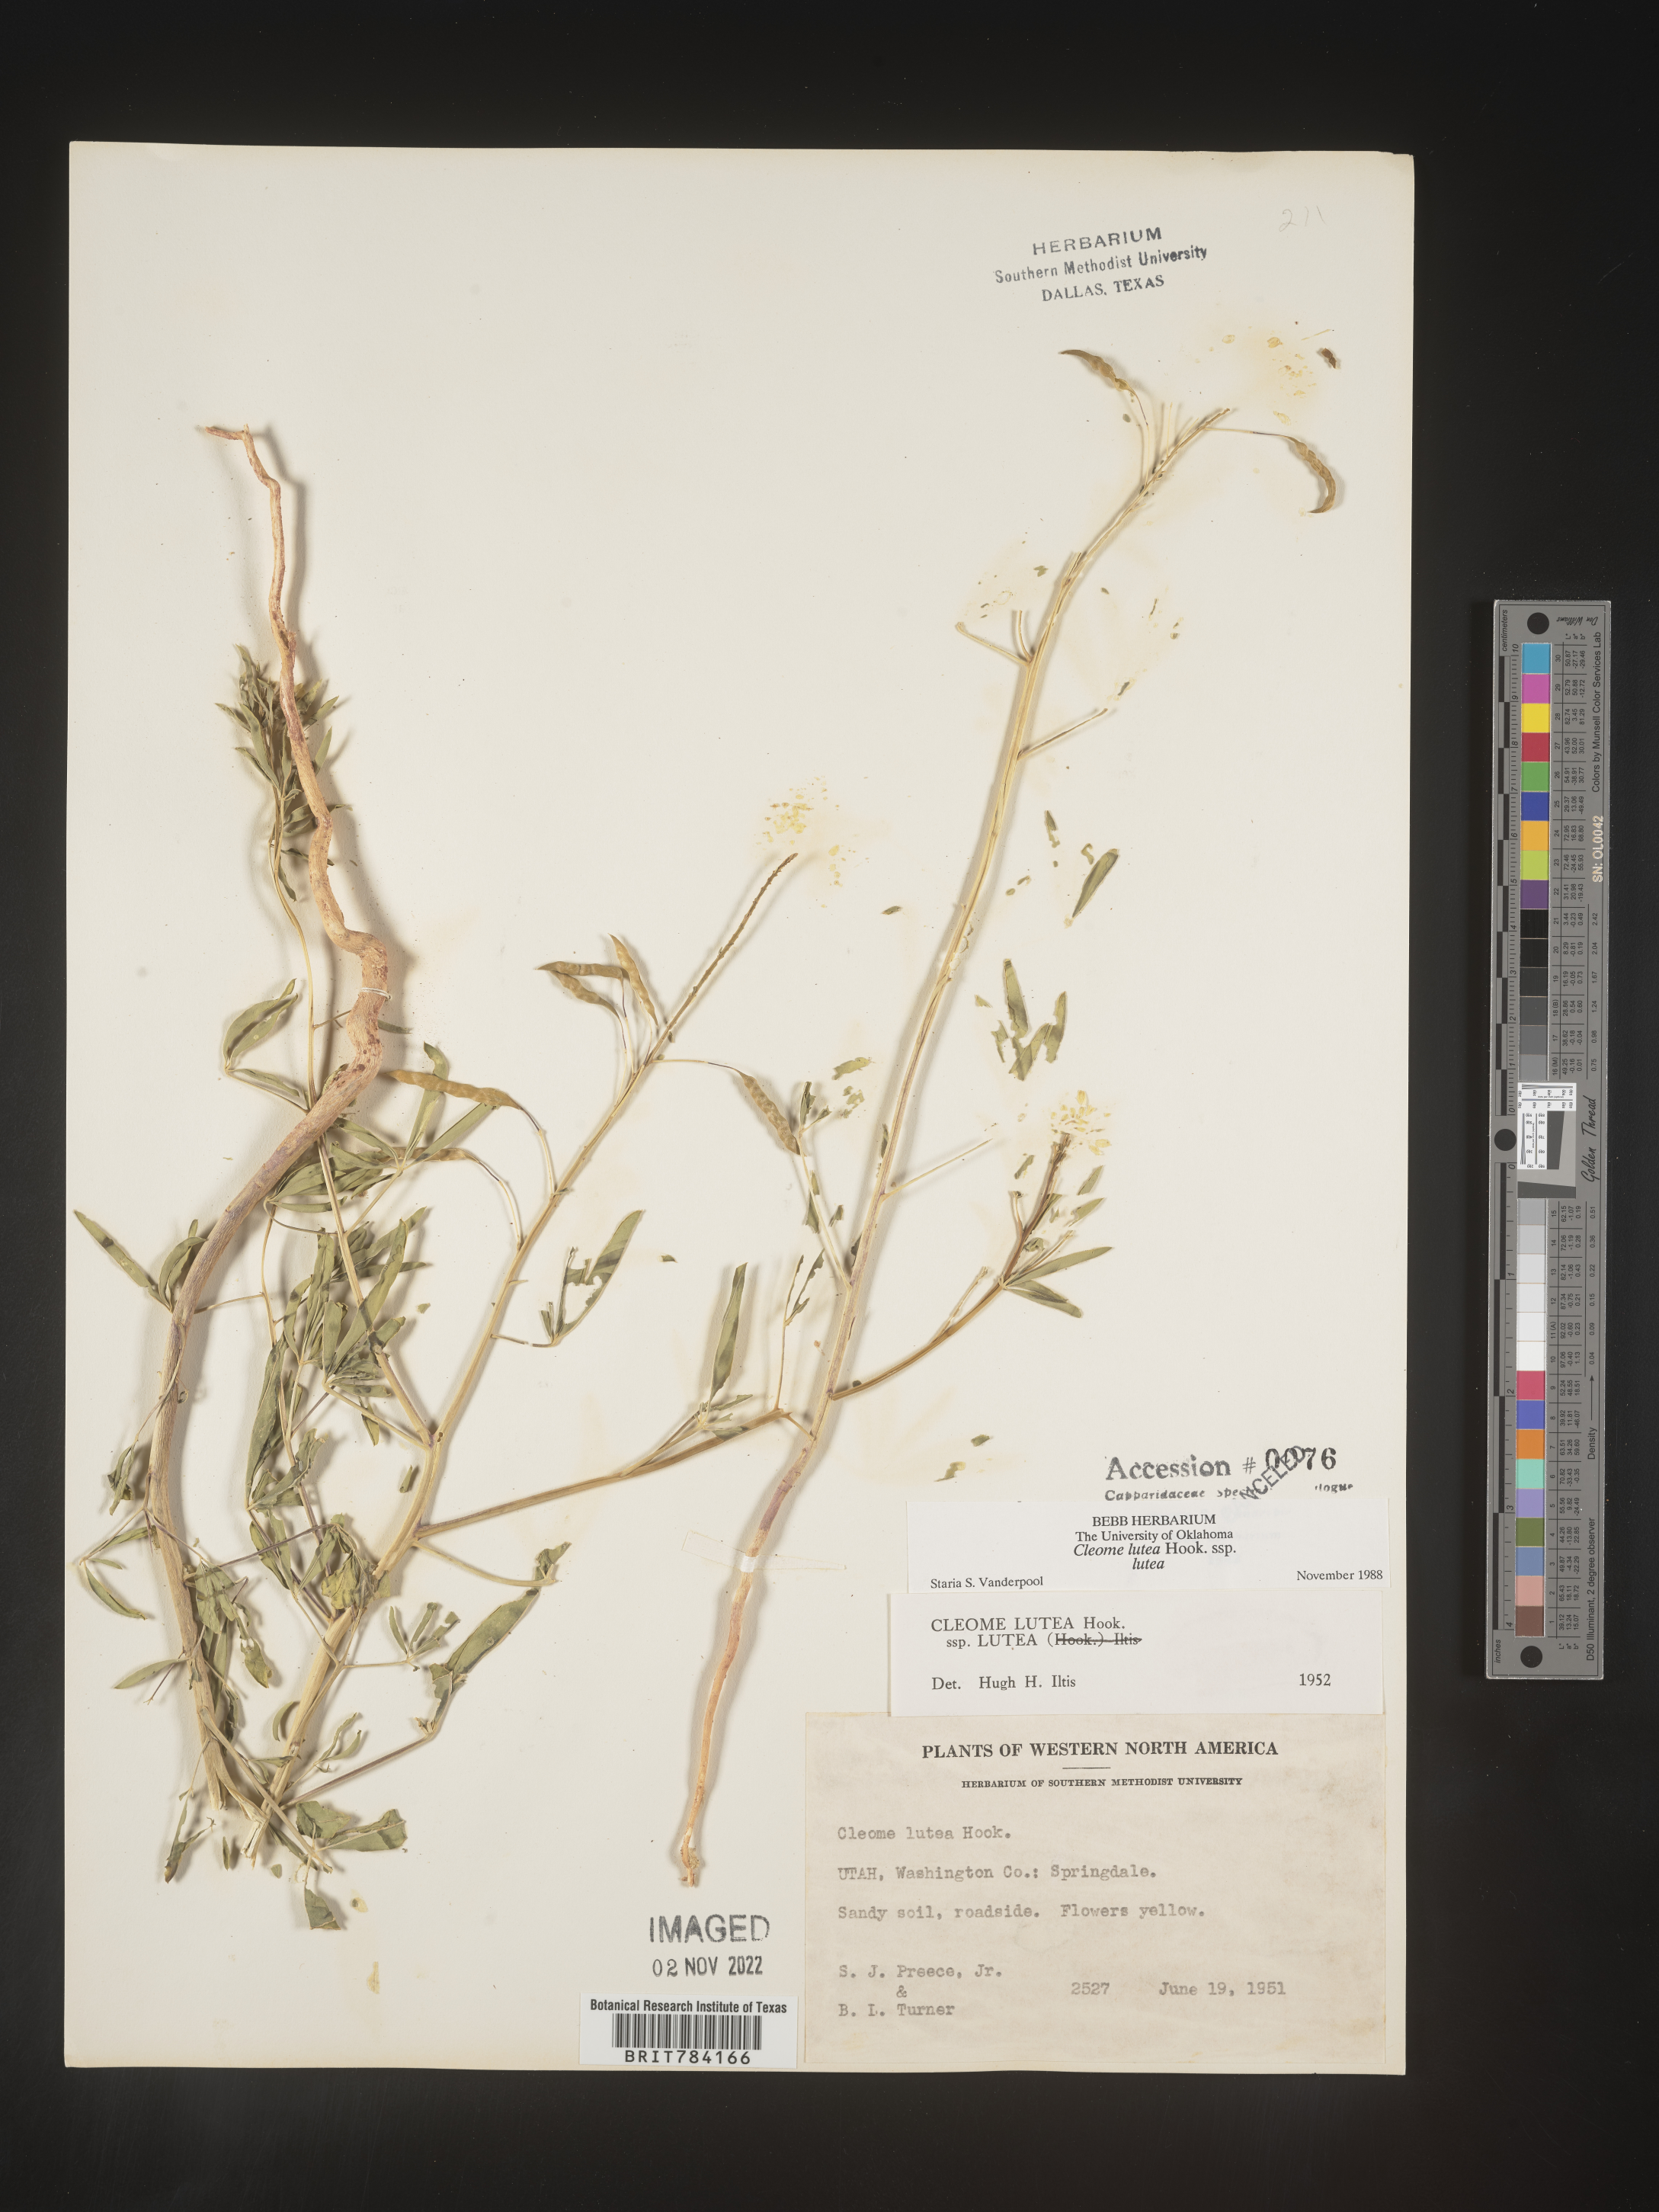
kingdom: Plantae
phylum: Tracheophyta
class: Magnoliopsida
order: Brassicales
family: Cleomaceae
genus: Cleomella
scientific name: Cleomella lutea
